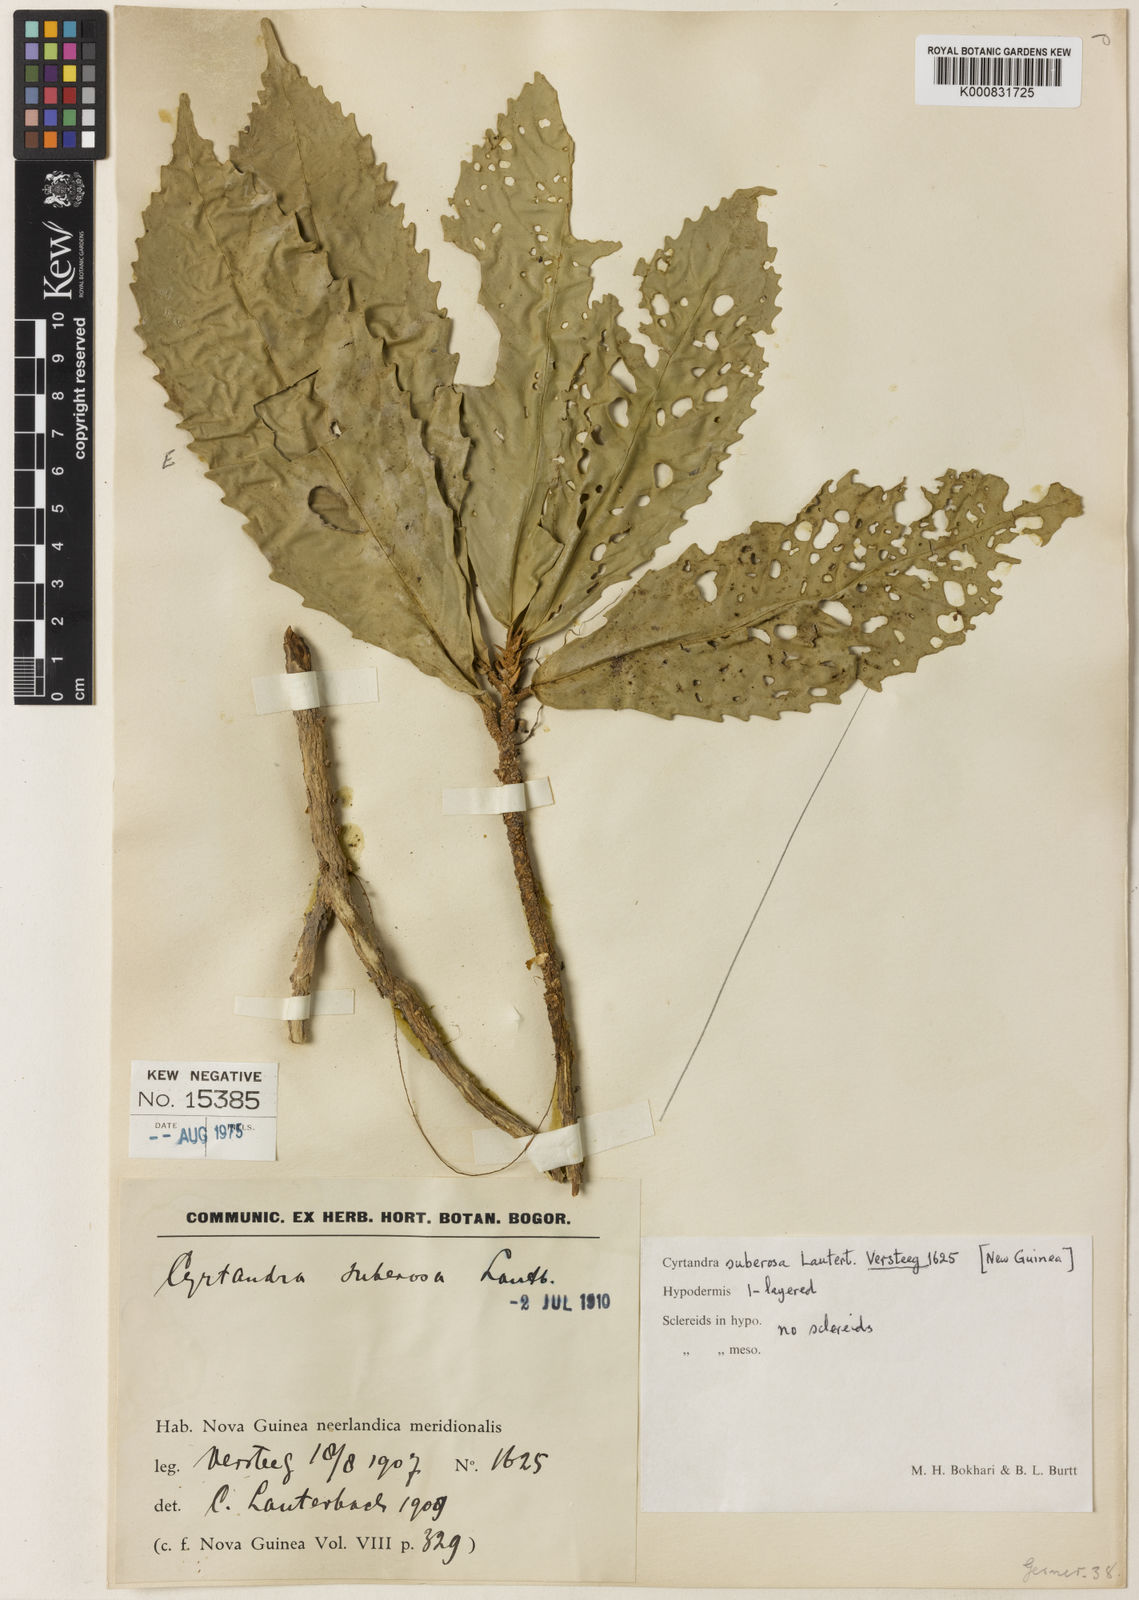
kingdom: Plantae
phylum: Tracheophyta
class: Magnoliopsida
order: Lamiales
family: Gesneriaceae
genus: Cyrtandra
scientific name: Cyrtandra suberosa
